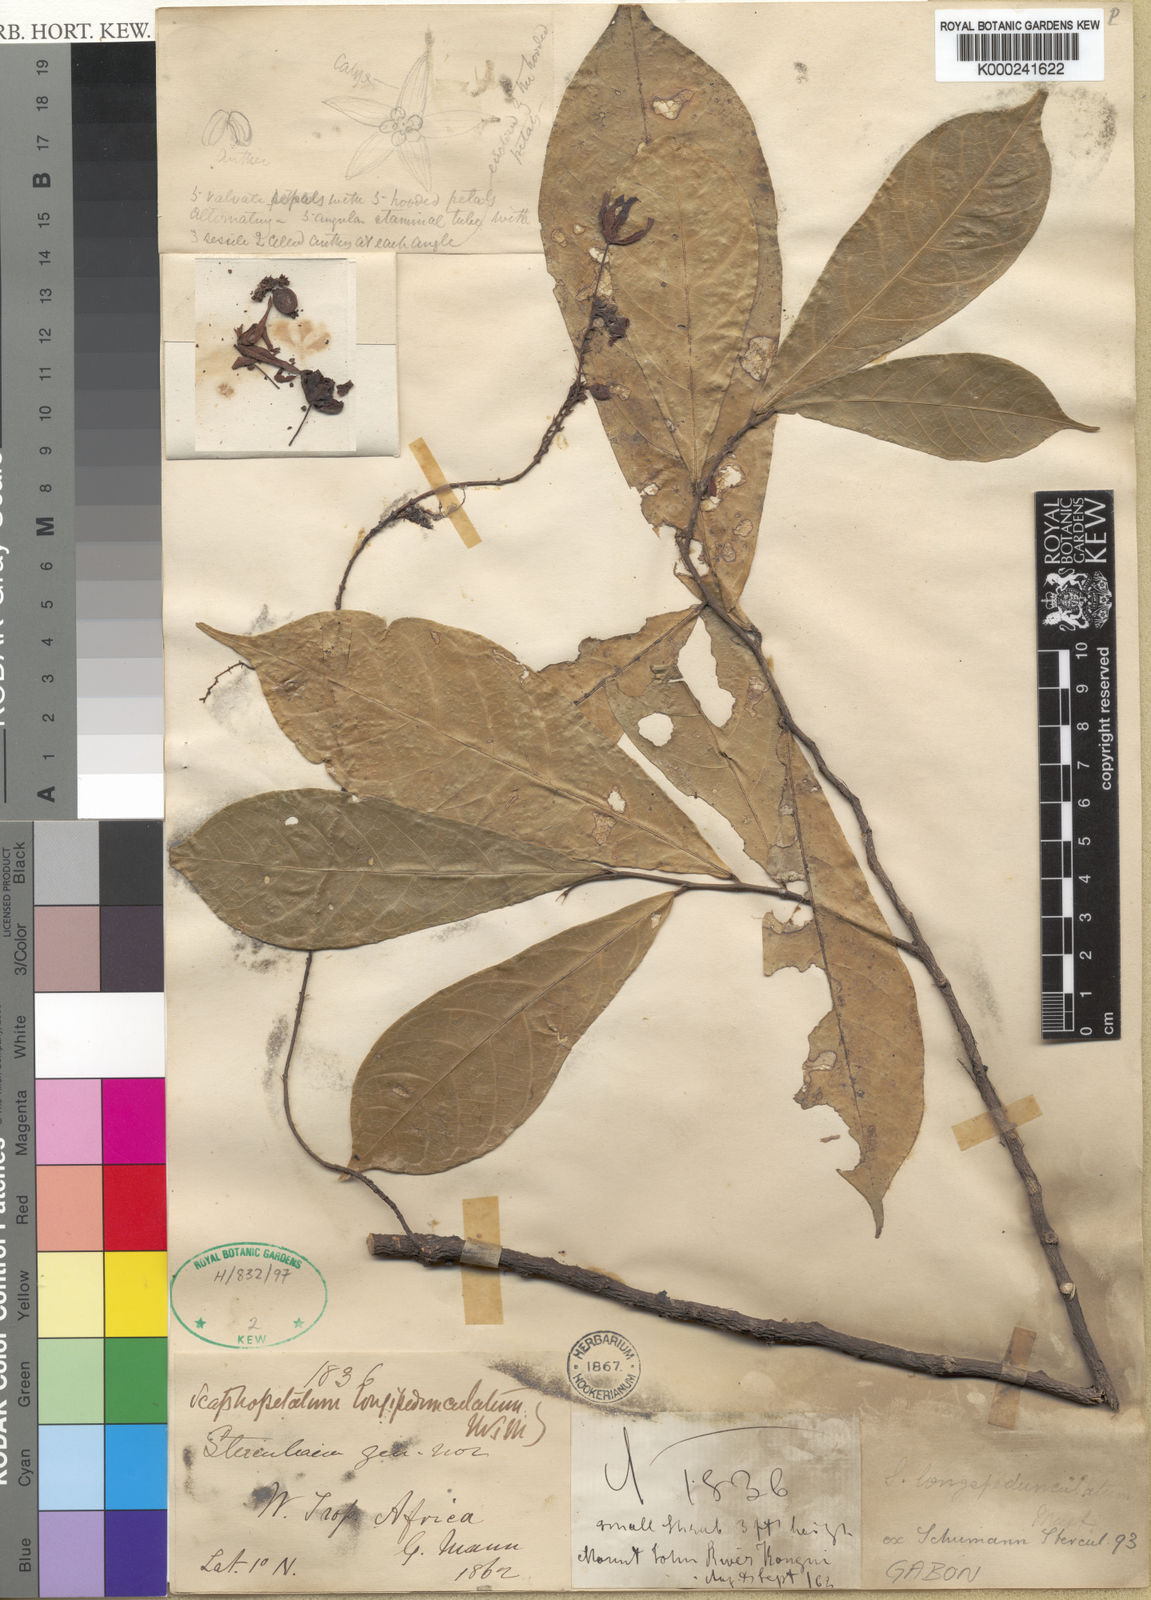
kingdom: Plantae
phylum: Tracheophyta
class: Magnoliopsida
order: Malvales
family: Malvaceae
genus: Scaphopetalum
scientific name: Scaphopetalum
